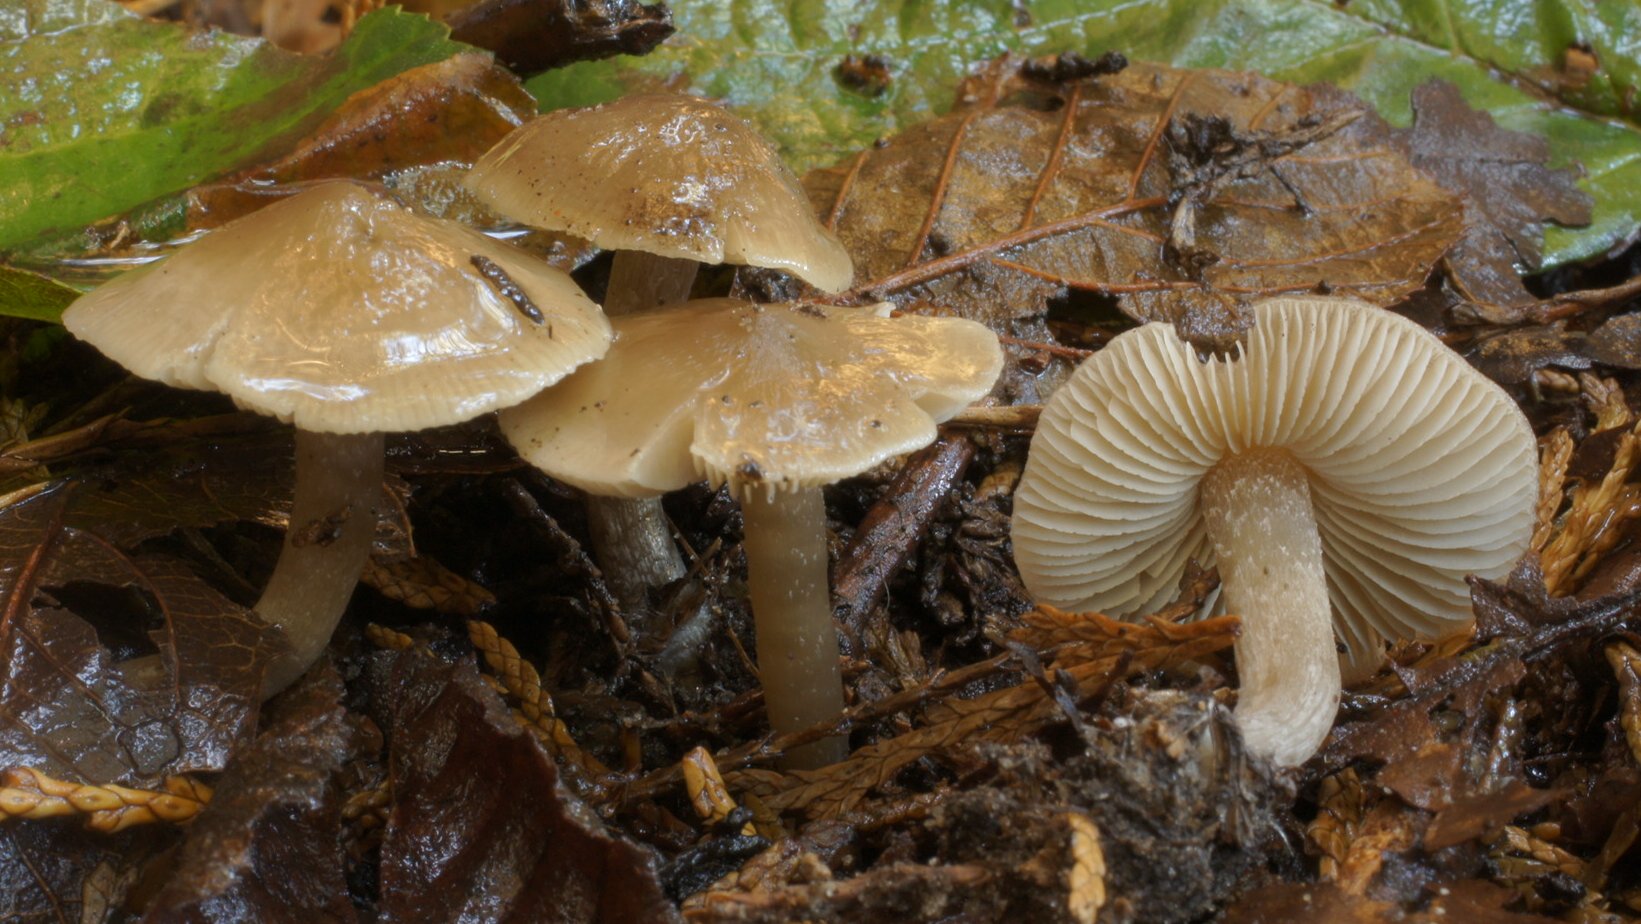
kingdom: Fungi
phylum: Basidiomycota
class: Agaricomycetes
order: Agaricales
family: Lyophyllaceae
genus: Myochromella
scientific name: Myochromella boudieri
